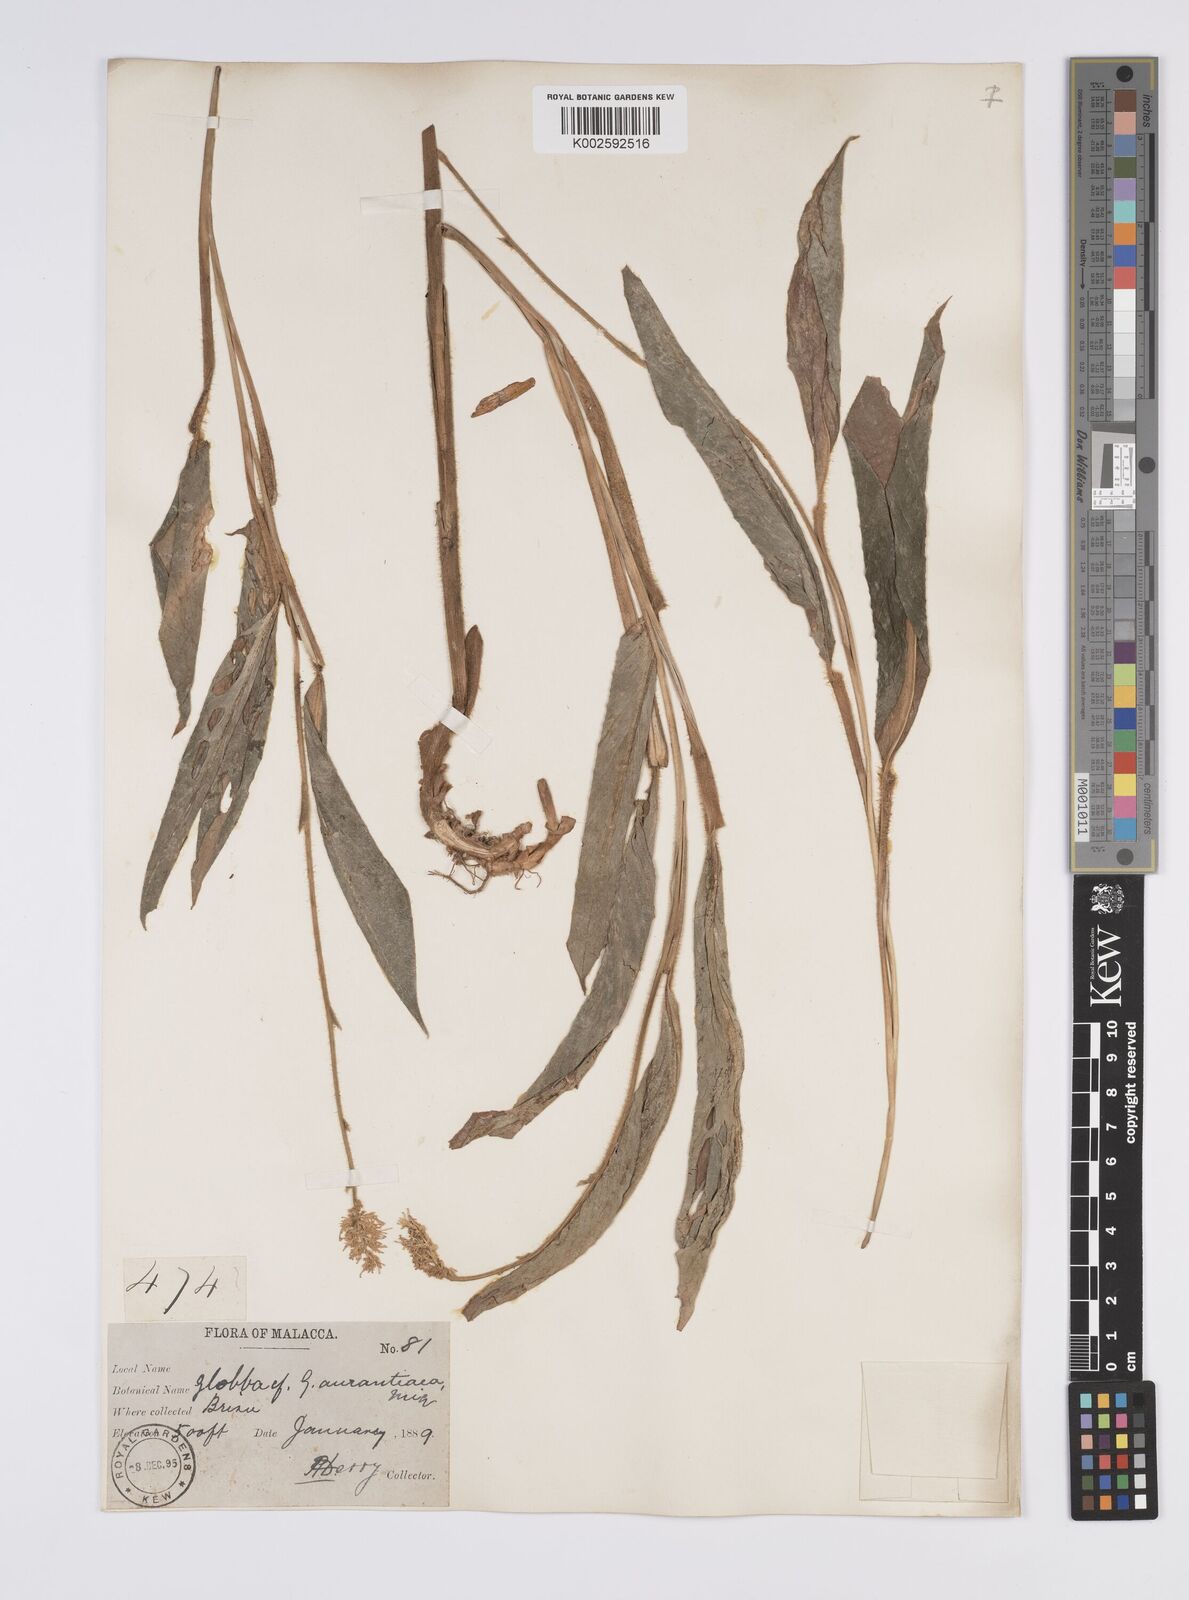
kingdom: Plantae
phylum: Tracheophyta
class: Liliopsida
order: Zingiberales
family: Zingiberaceae
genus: Globba
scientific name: Globba aurantiaca
